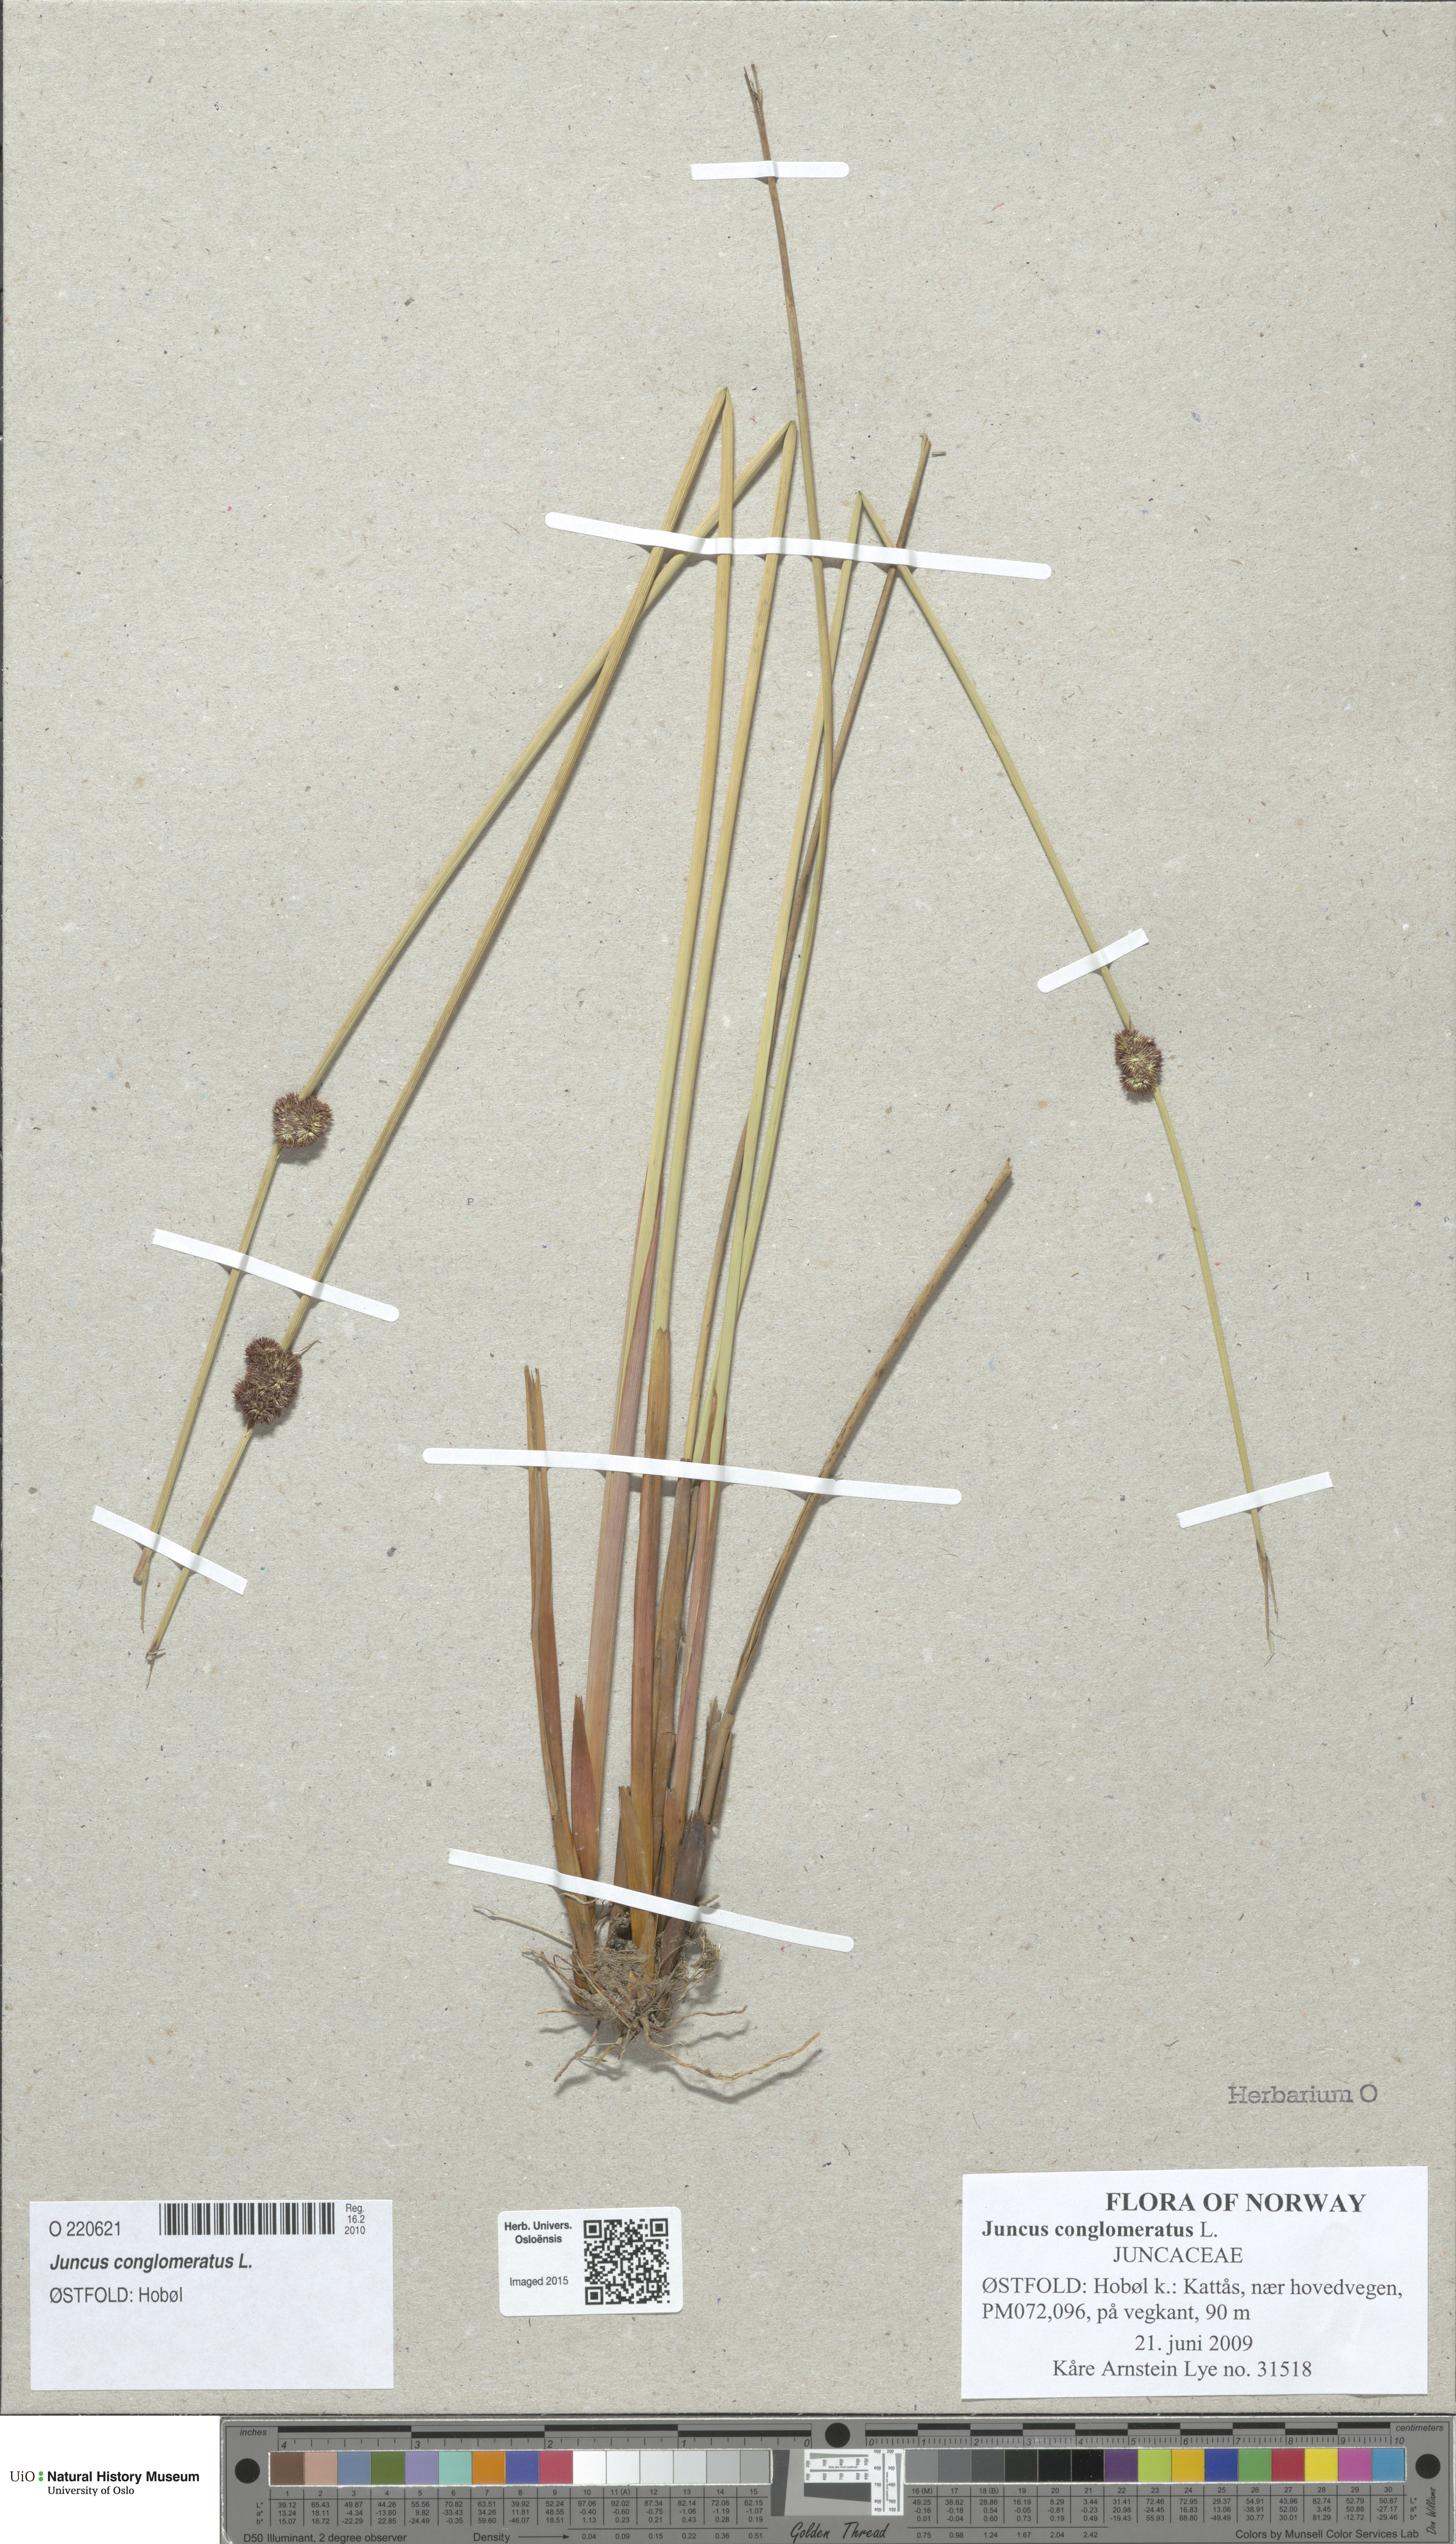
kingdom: Plantae
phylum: Tracheophyta
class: Liliopsida
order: Poales
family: Juncaceae
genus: Juncus
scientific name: Juncus conglomeratus
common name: Compact rush
